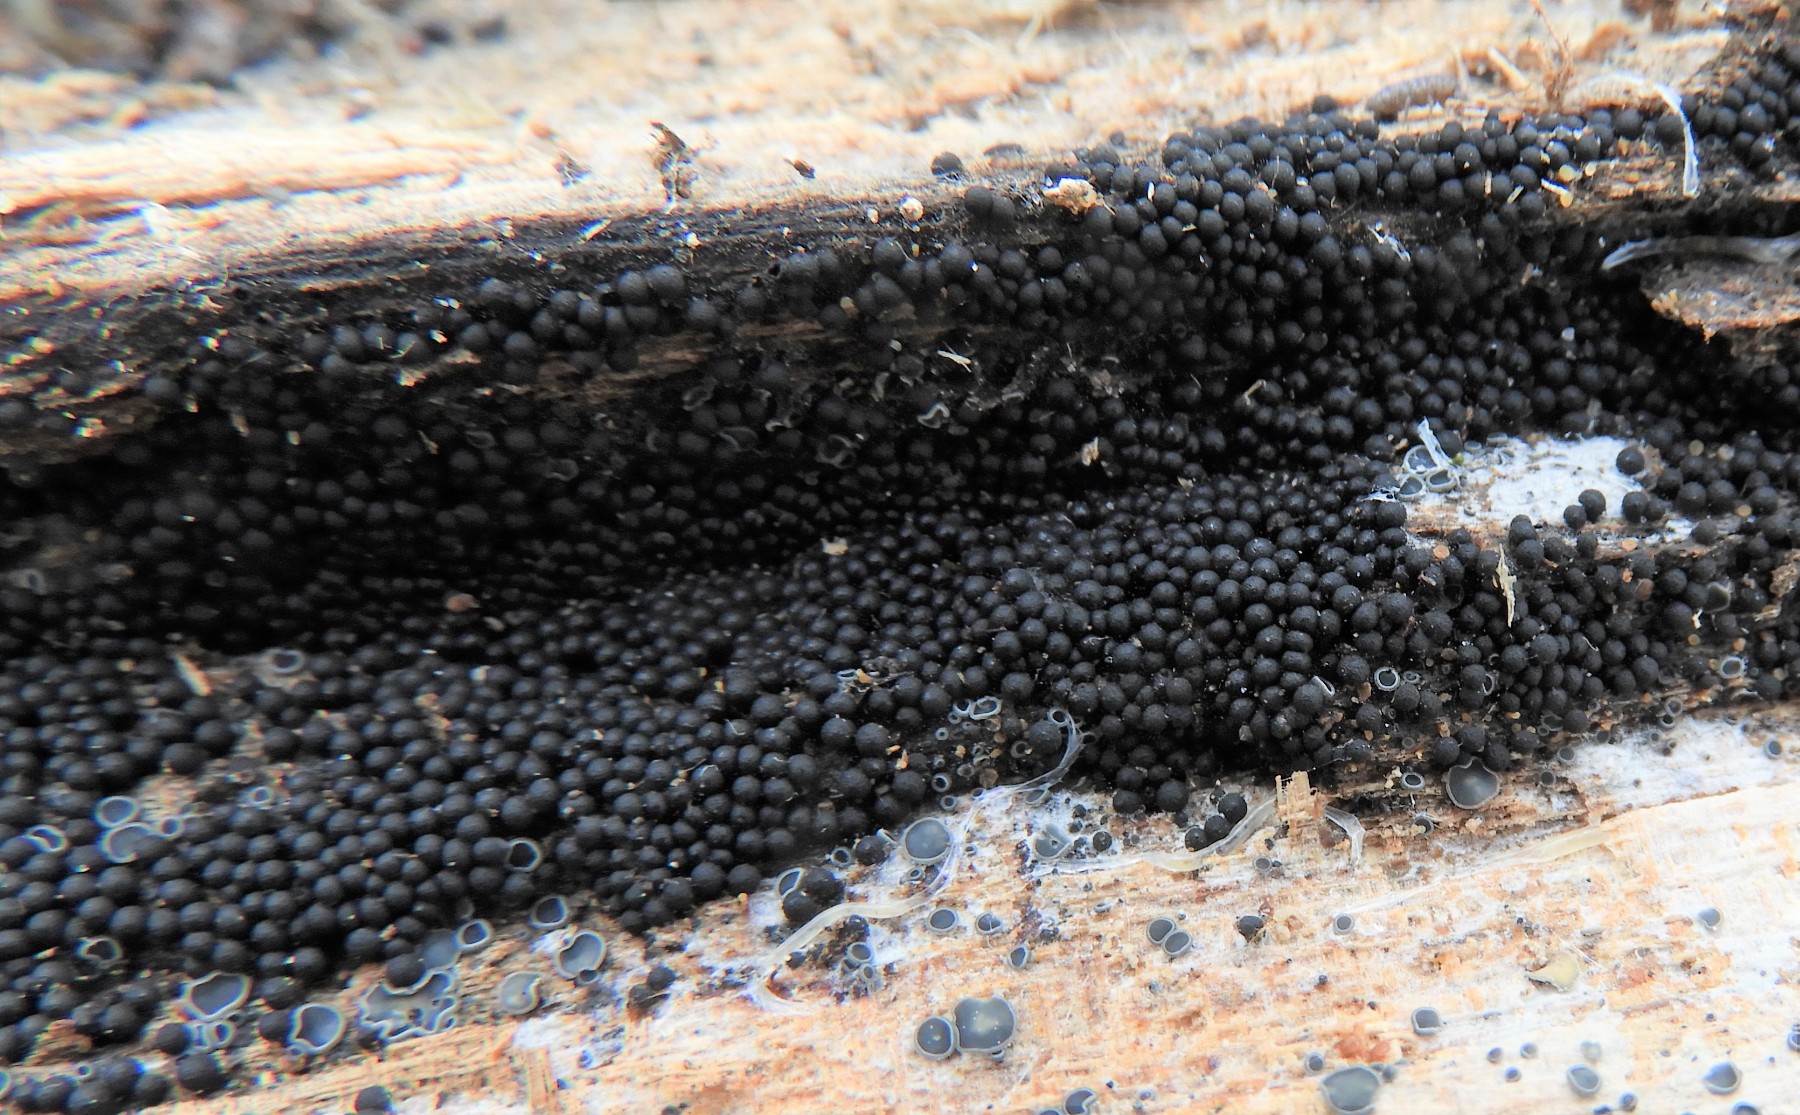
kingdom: Fungi
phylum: Ascomycota
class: Sordariomycetes
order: Sordariales
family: Helminthosphaeriaceae
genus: Ruzenia
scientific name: Ruzenia spermoides
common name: glat børstekerne
